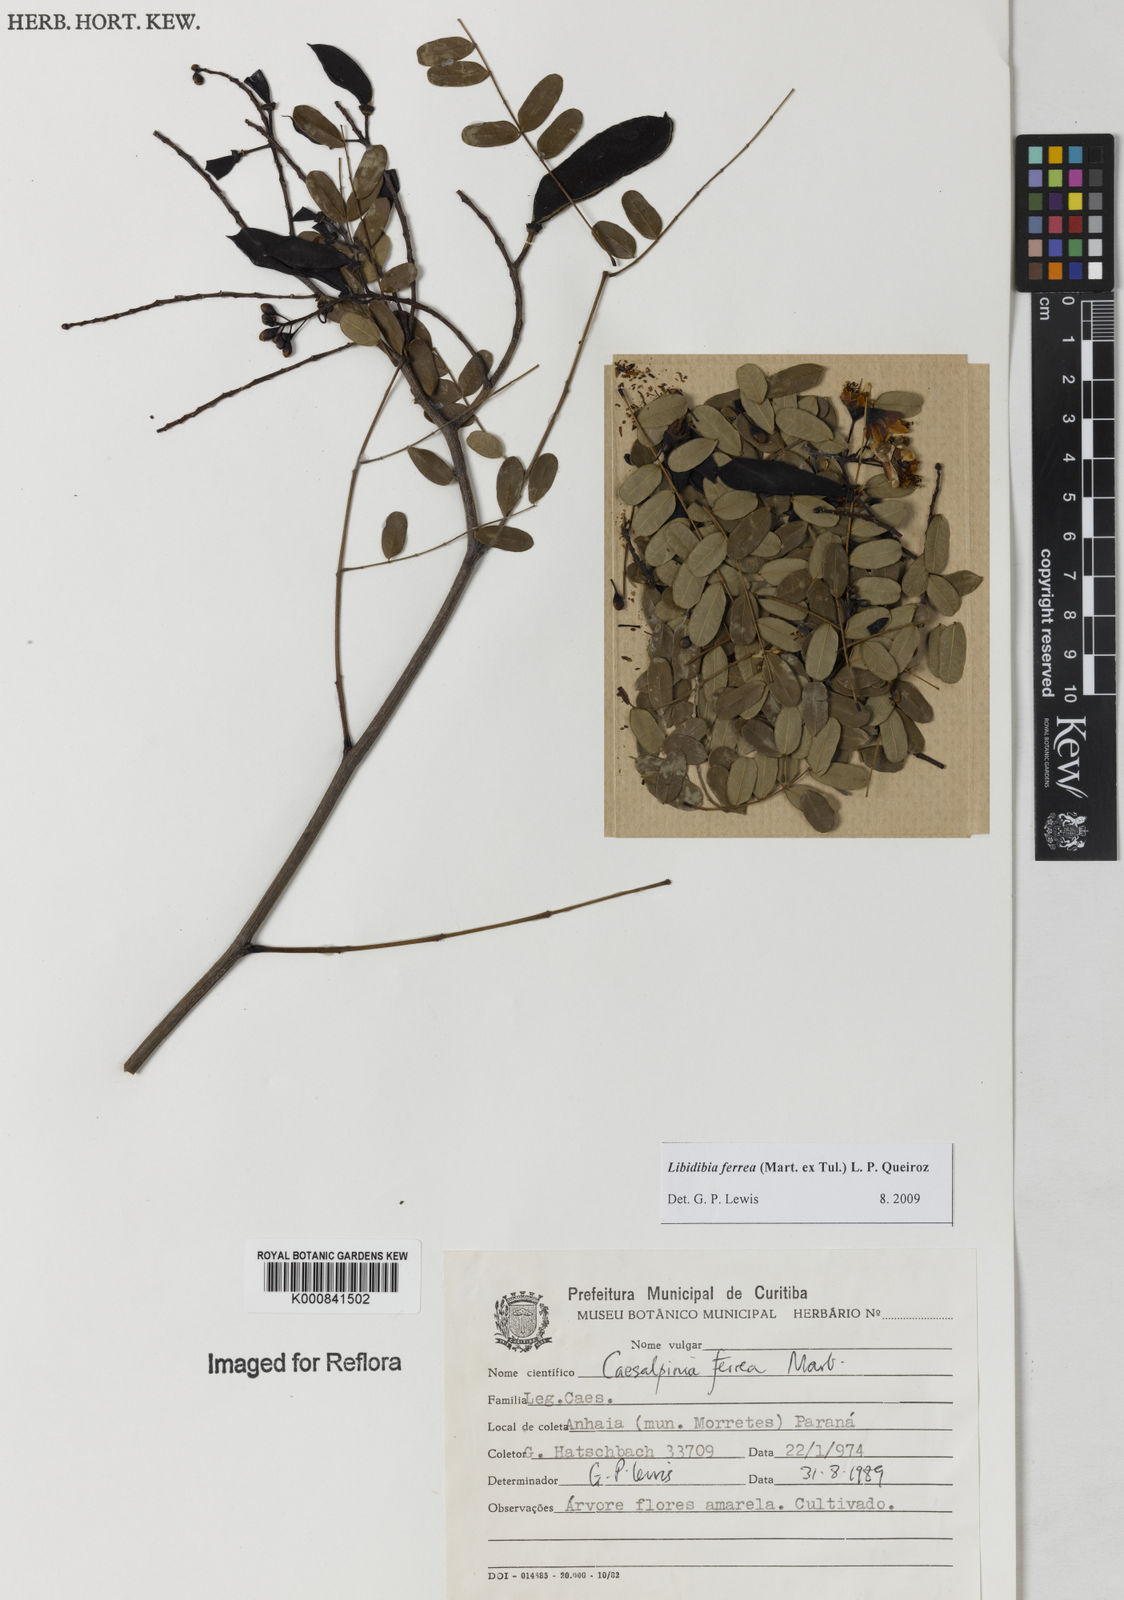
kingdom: Plantae
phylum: Tracheophyta
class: Magnoliopsida
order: Fabales
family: Fabaceae
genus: Libidibia
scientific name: Libidibia ferrea
